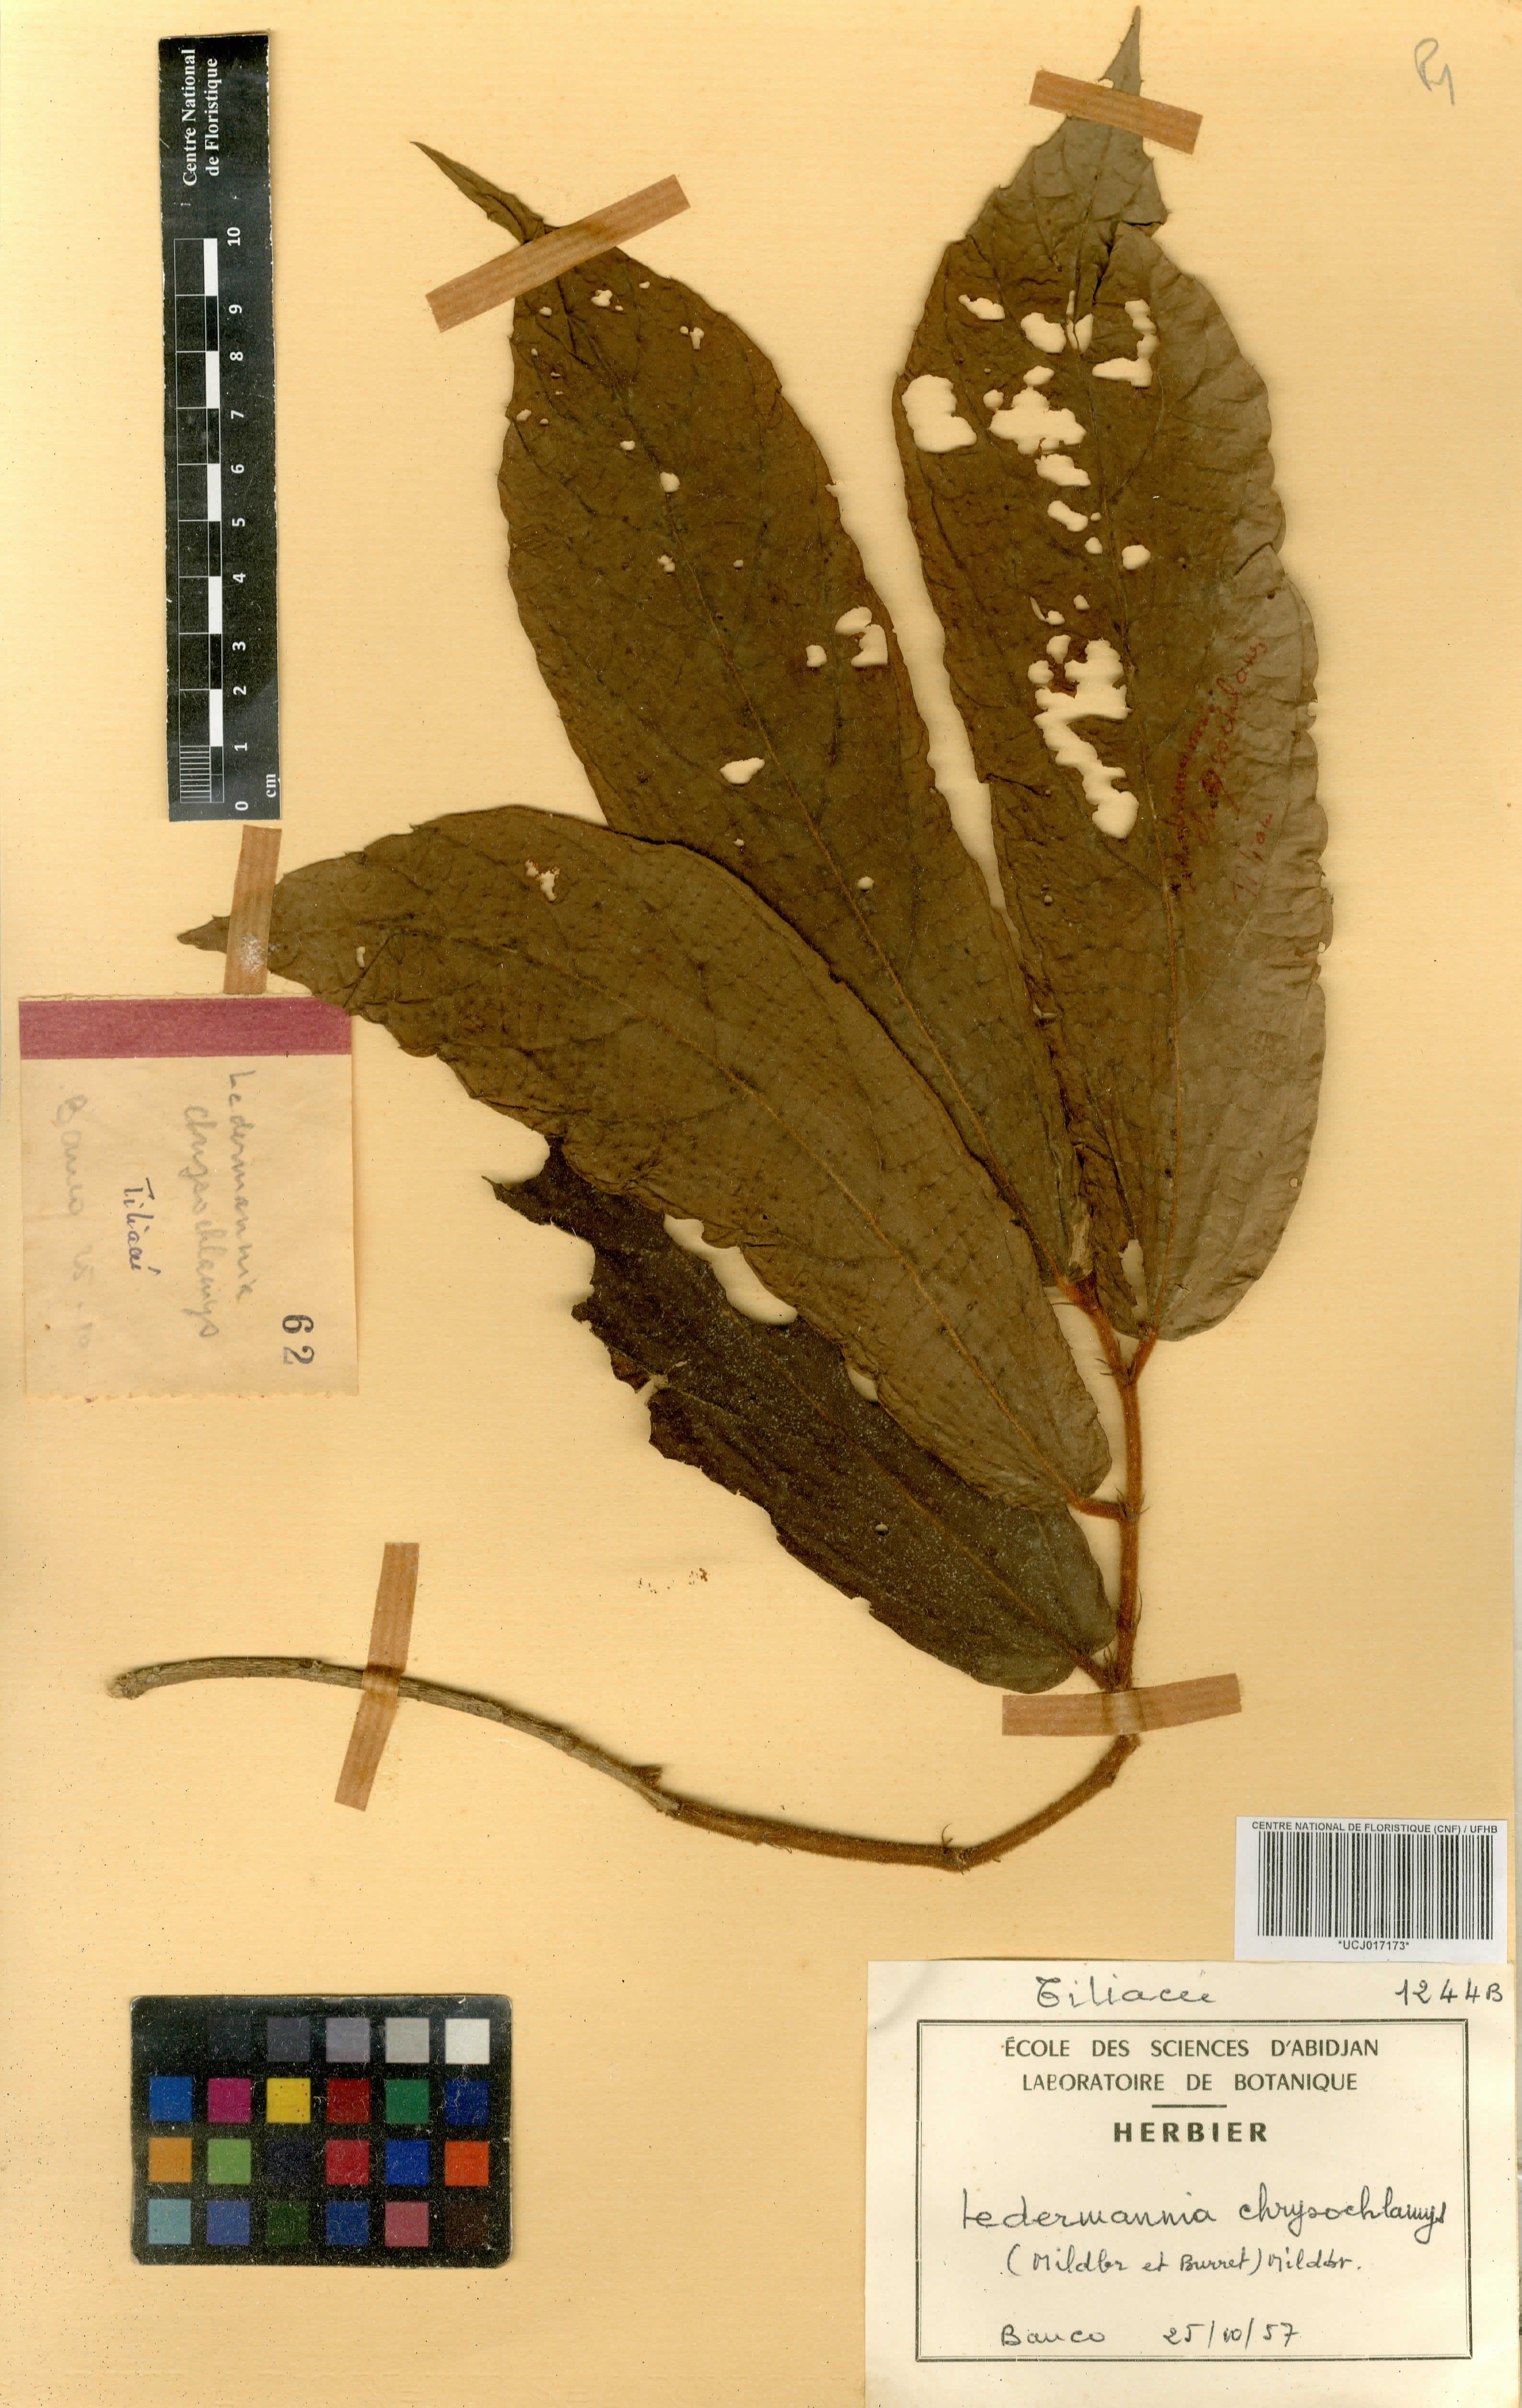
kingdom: Plantae
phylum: Tracheophyta
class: Magnoliopsida
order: Malvales
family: Malvaceae
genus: Desplatsia
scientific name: Desplatsia chrysochlamys
